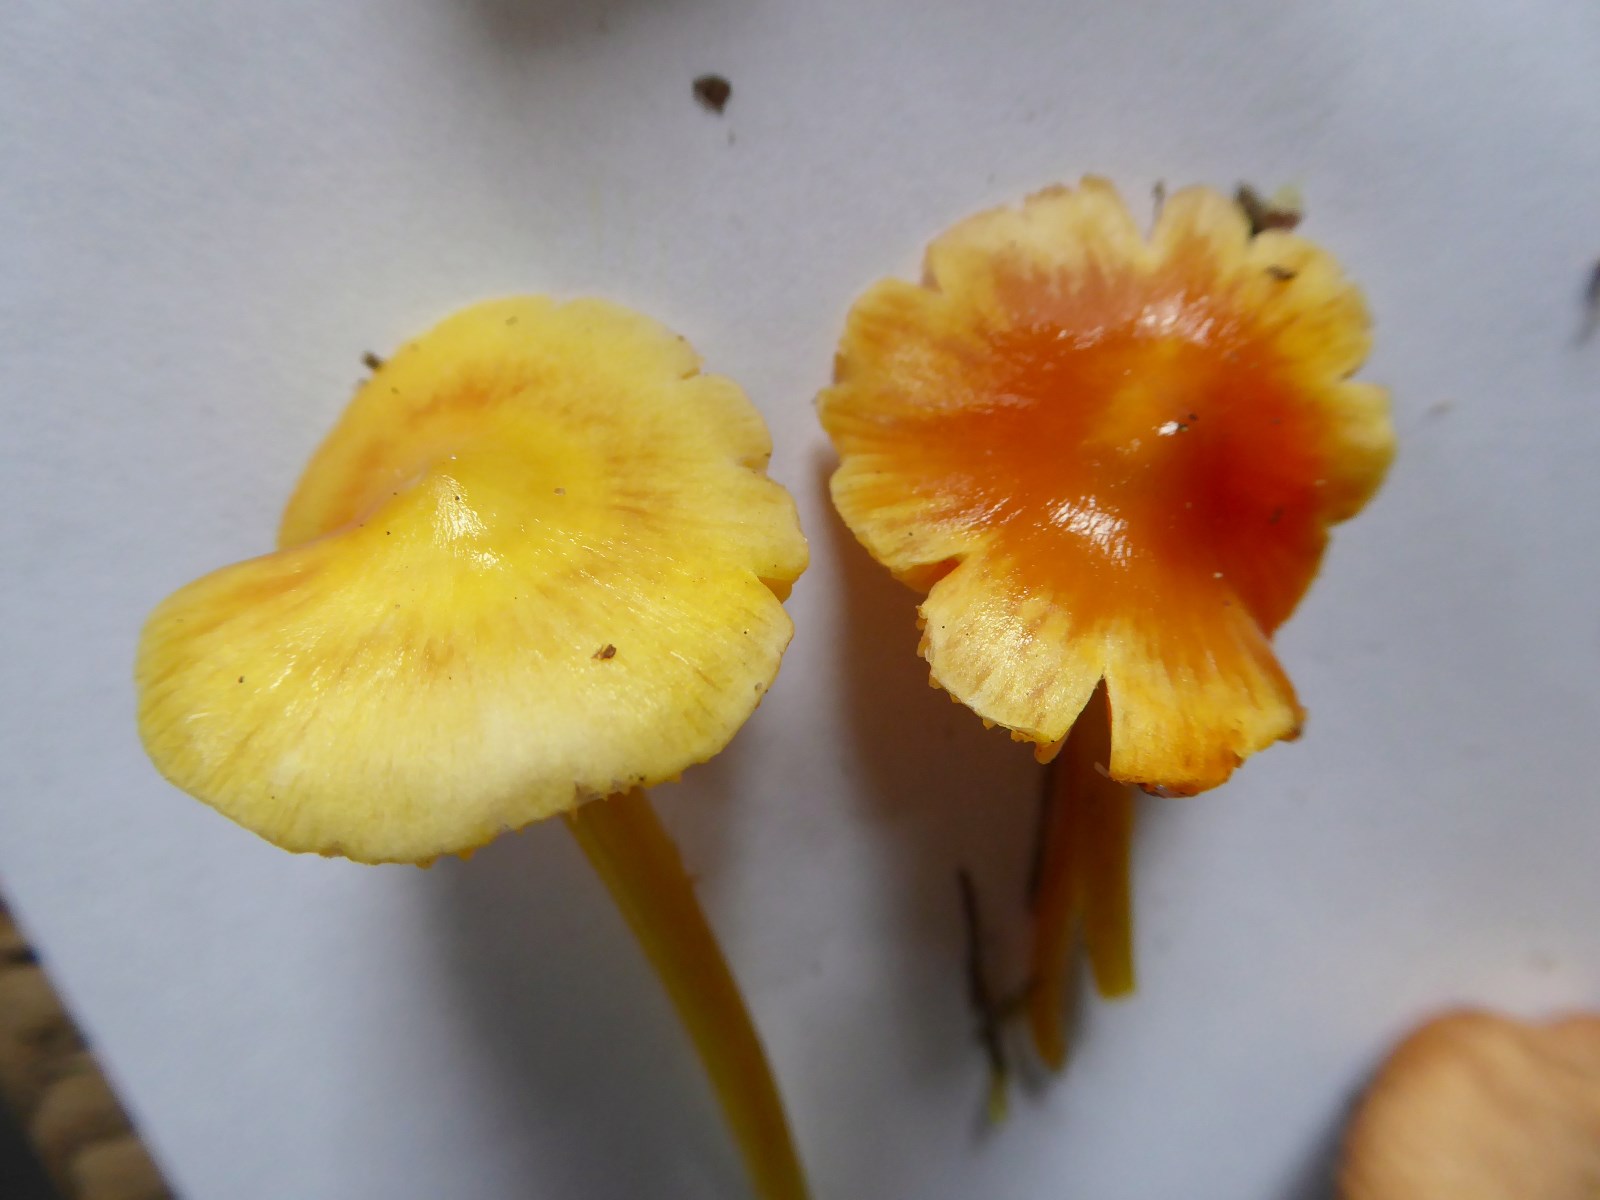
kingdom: Fungi
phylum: Basidiomycota
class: Agaricomycetes
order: Agaricales
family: Hygrophoraceae
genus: Hygrocybe
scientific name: Hygrocybe
